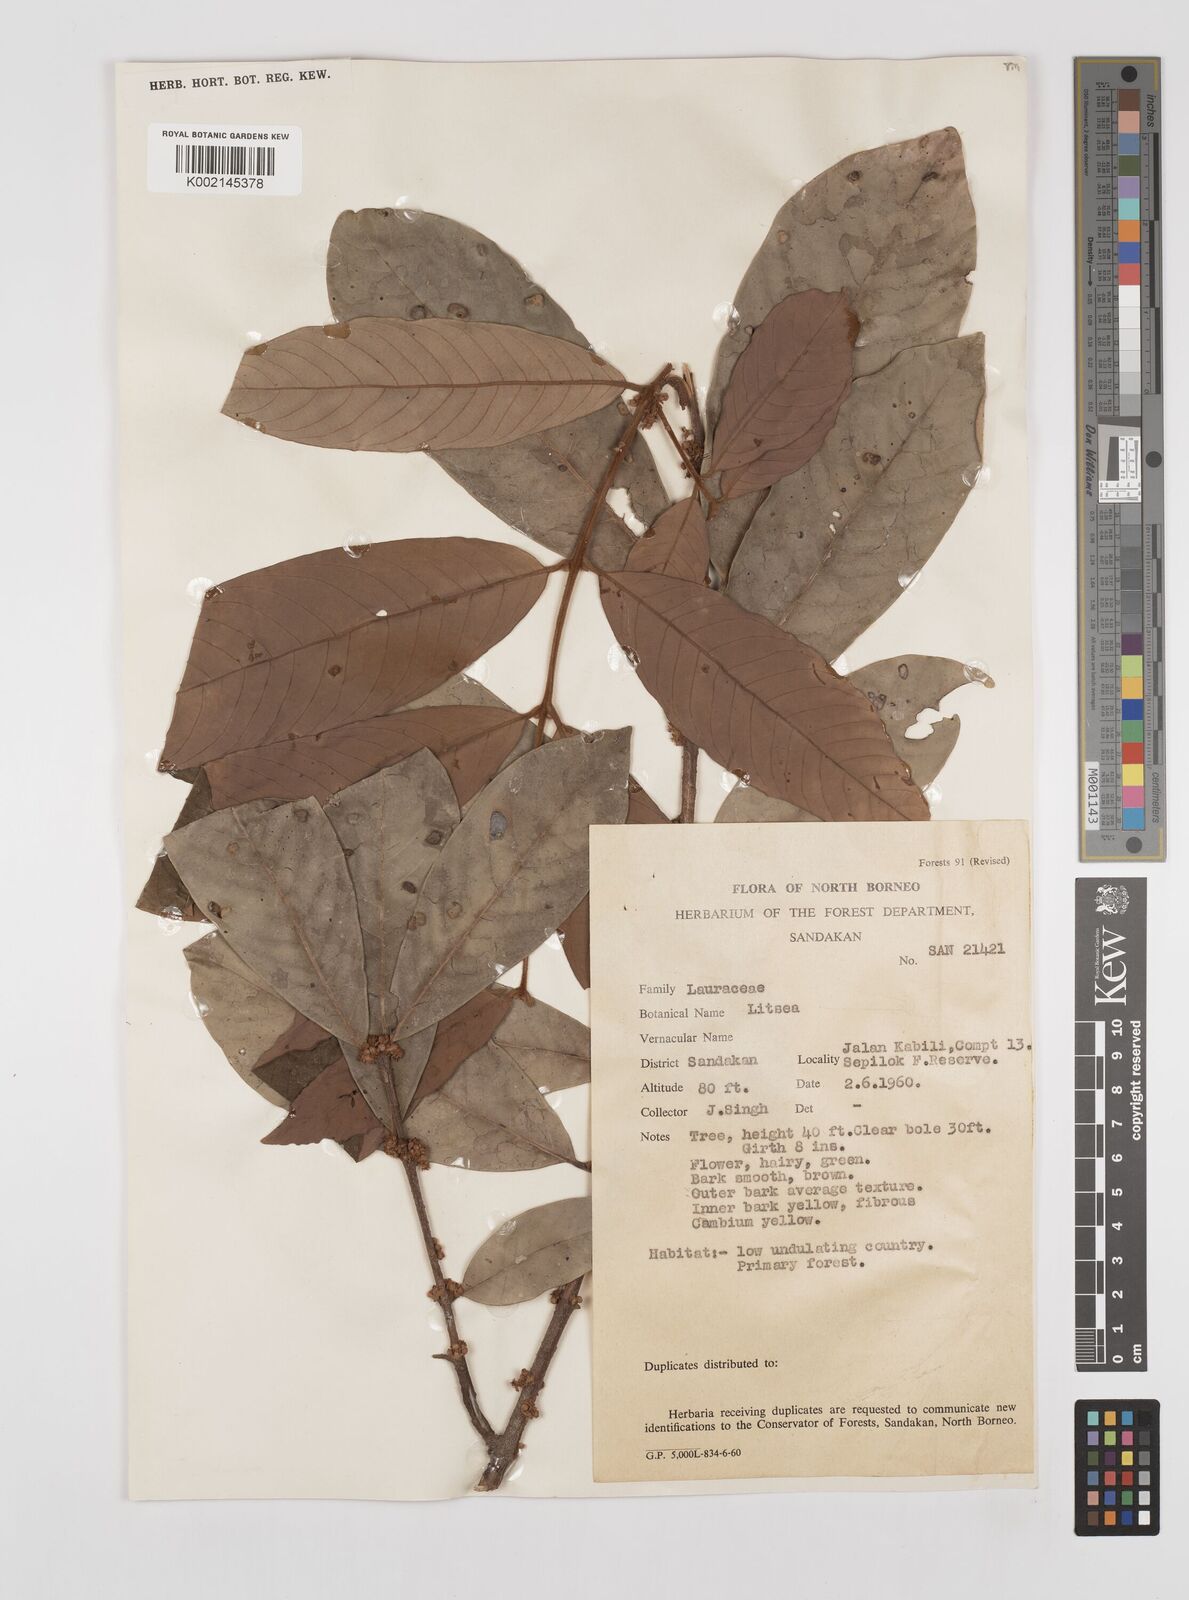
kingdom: Plantae
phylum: Tracheophyta
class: Magnoliopsida
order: Laurales
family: Lauraceae
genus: Litsea
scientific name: Litsea
